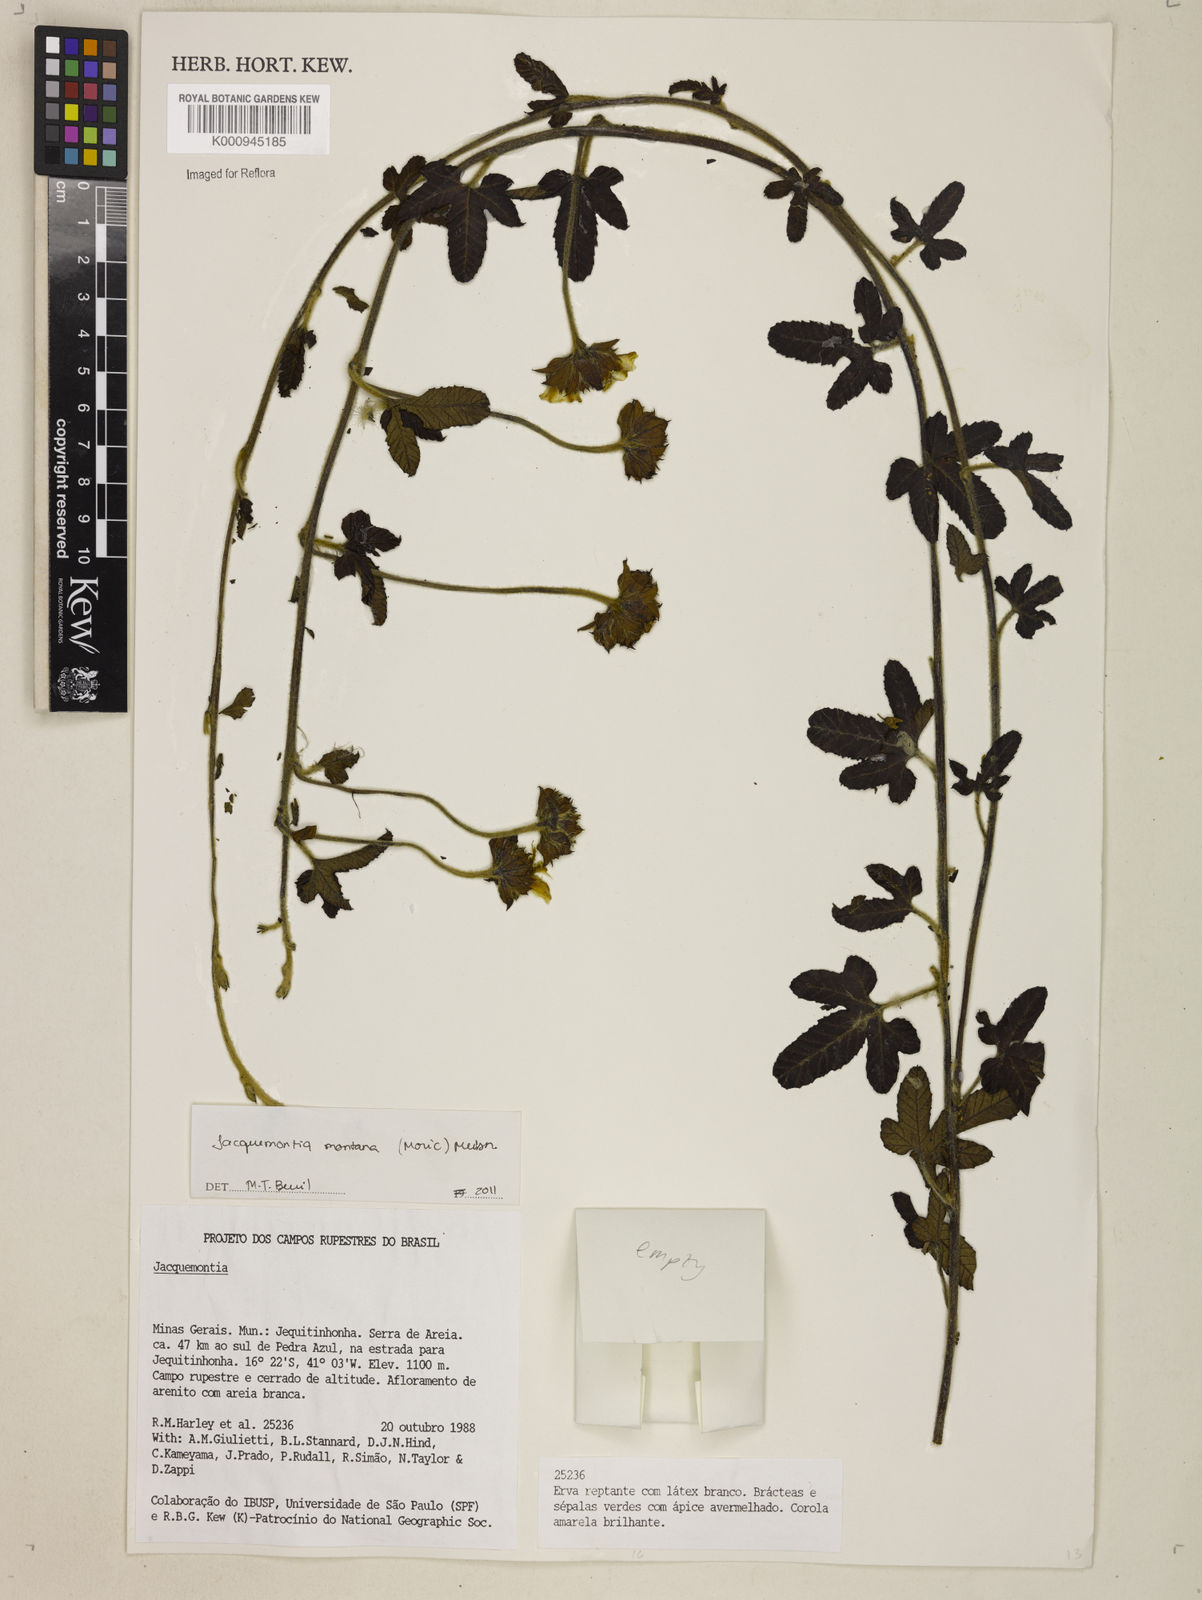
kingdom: Plantae
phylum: Tracheophyta
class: Magnoliopsida
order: Solanales
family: Convolvulaceae
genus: Daustinia
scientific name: Daustinia montana
